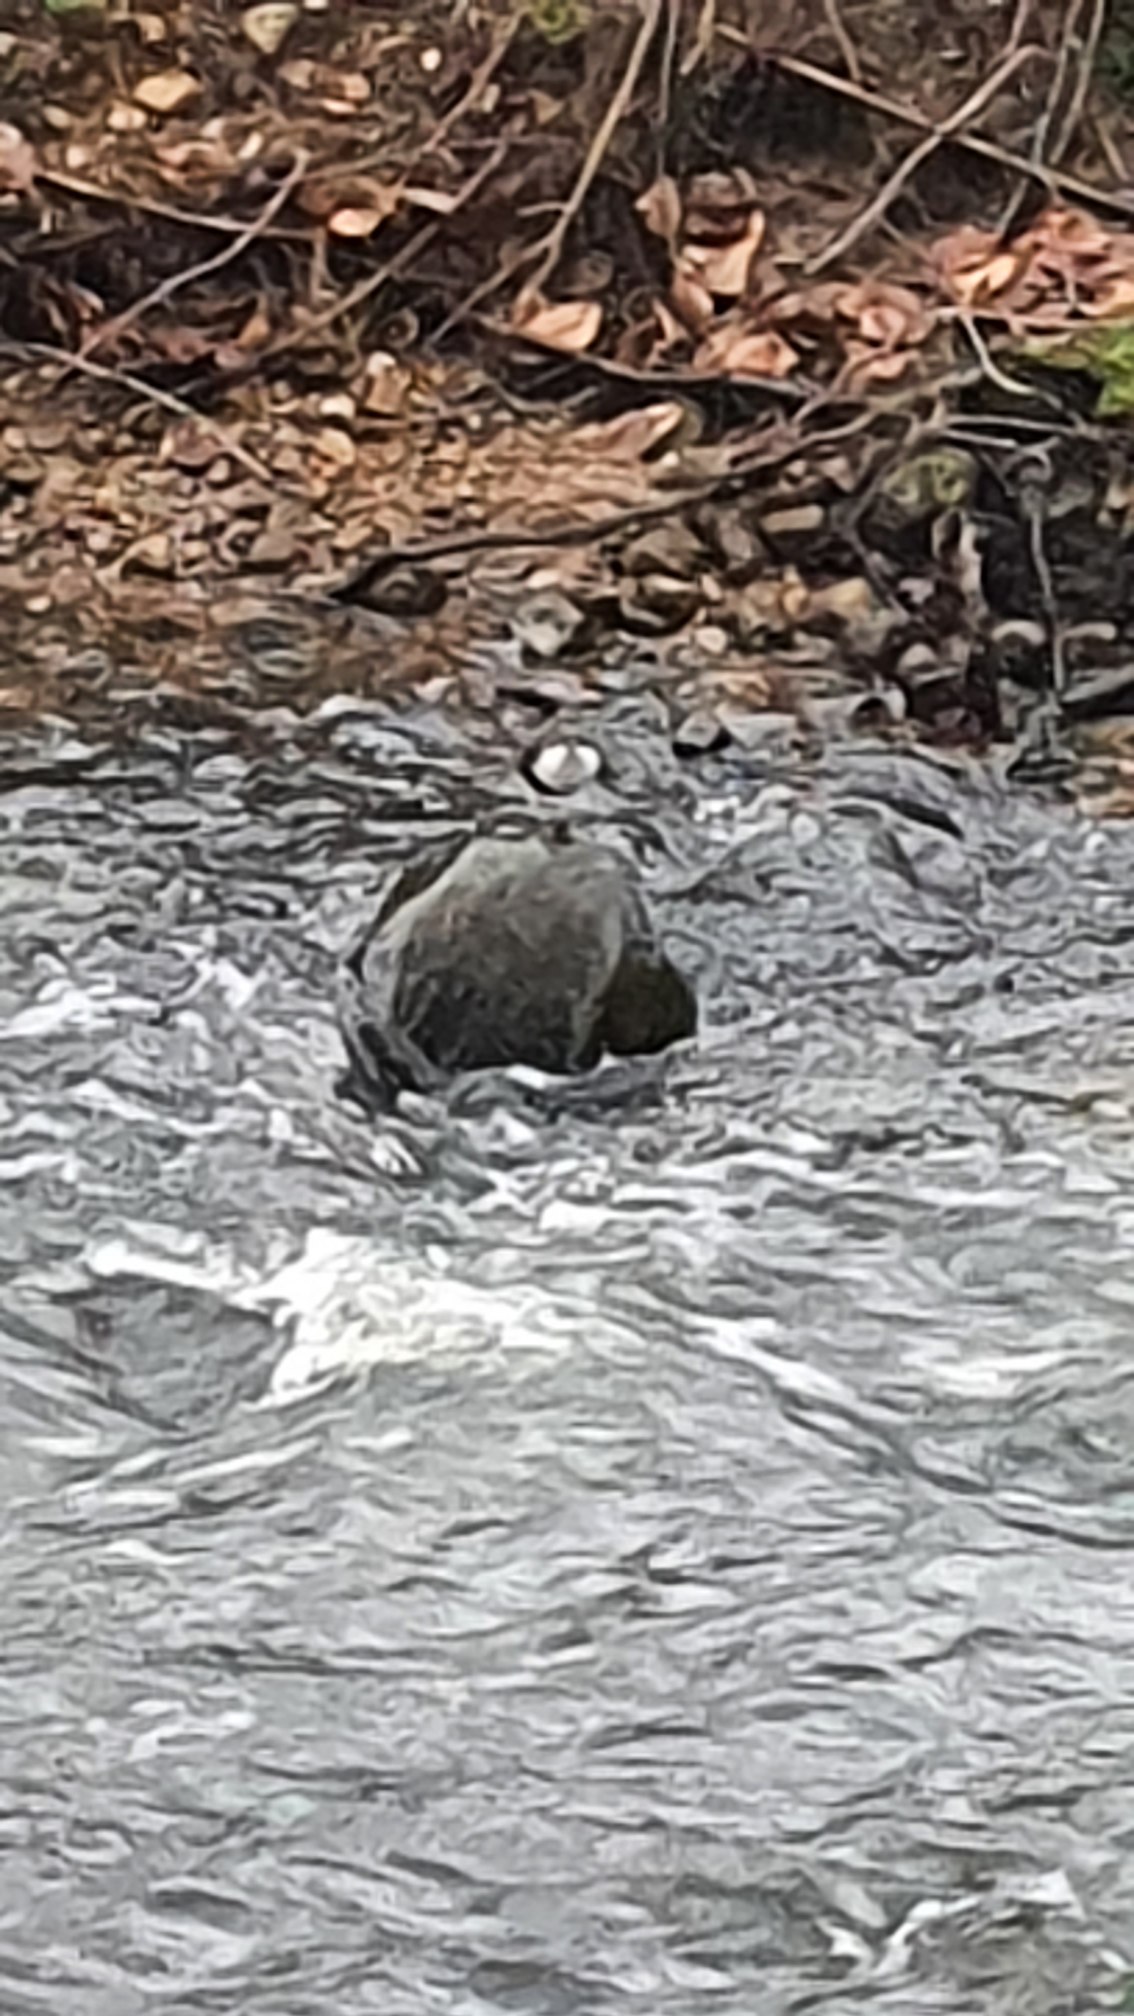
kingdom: Animalia
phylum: Chordata
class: Aves
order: Passeriformes
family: Cinclidae
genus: Cinclus
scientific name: Cinclus cinclus
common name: Vandstær
